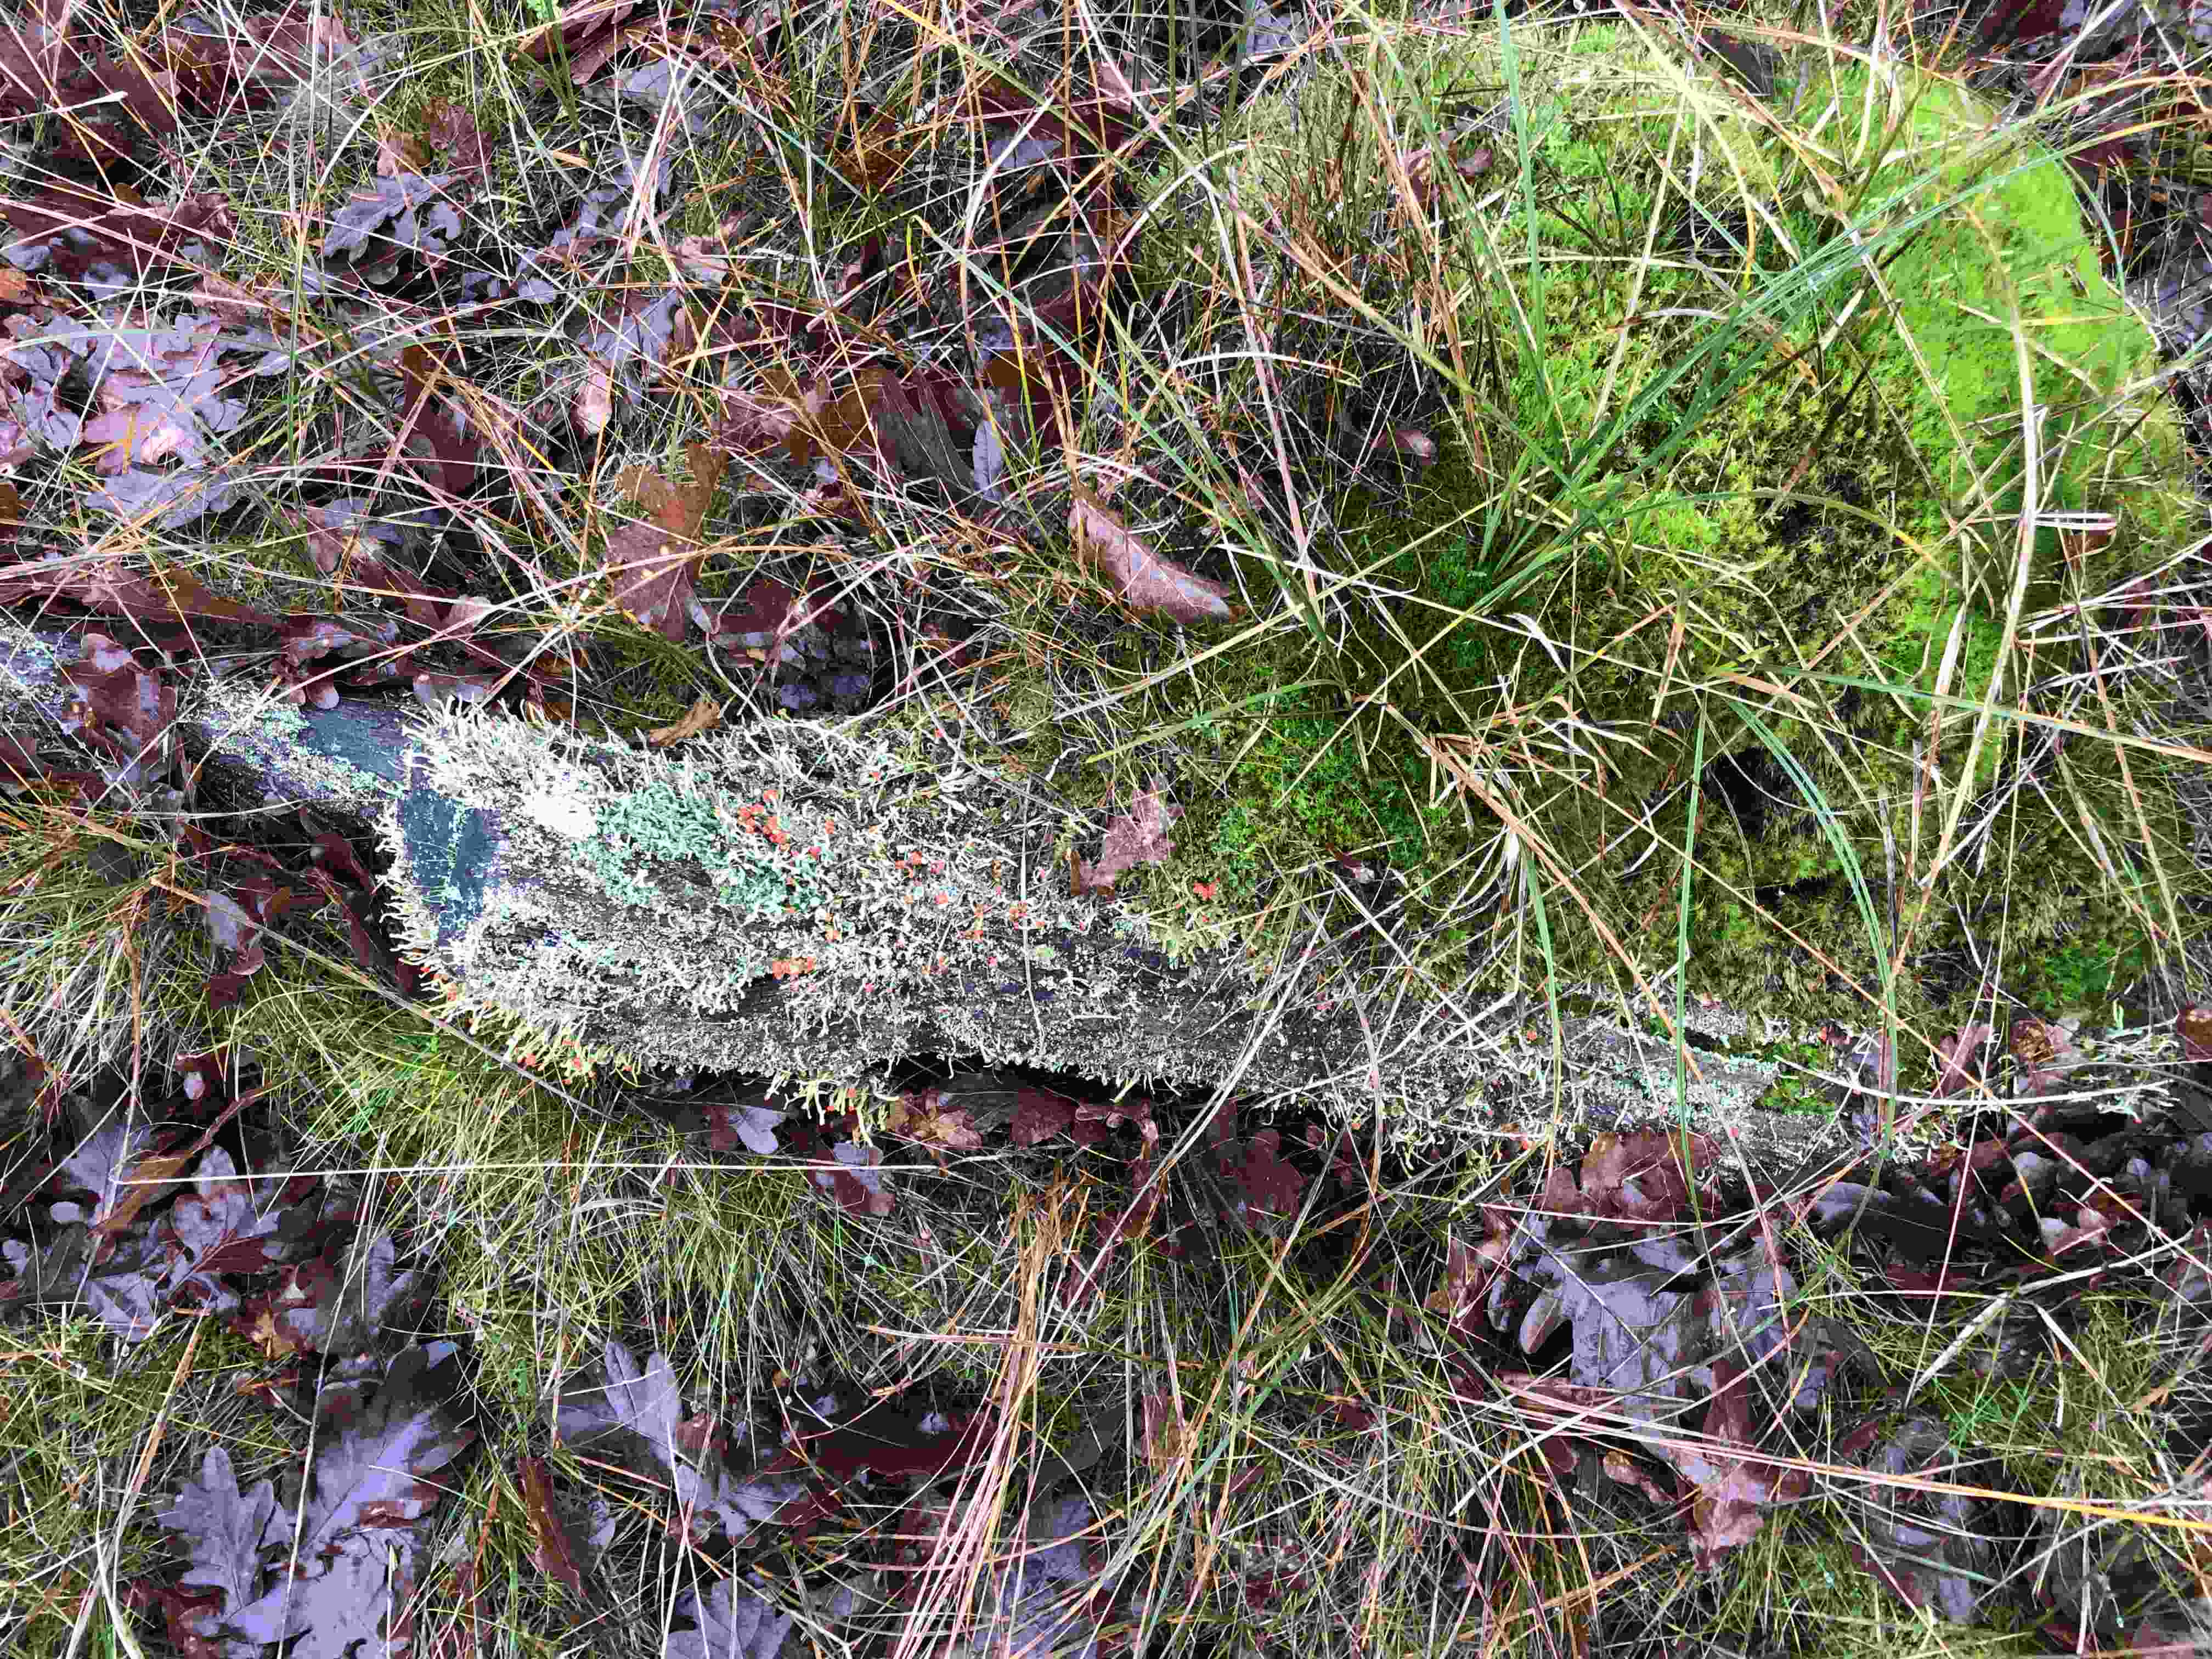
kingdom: Fungi
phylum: Ascomycota
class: Lecanoromycetes
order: Lecanorales
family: Cladoniaceae
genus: Cladonia
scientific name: Cladonia floerkeana
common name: lakrød bægerlav
